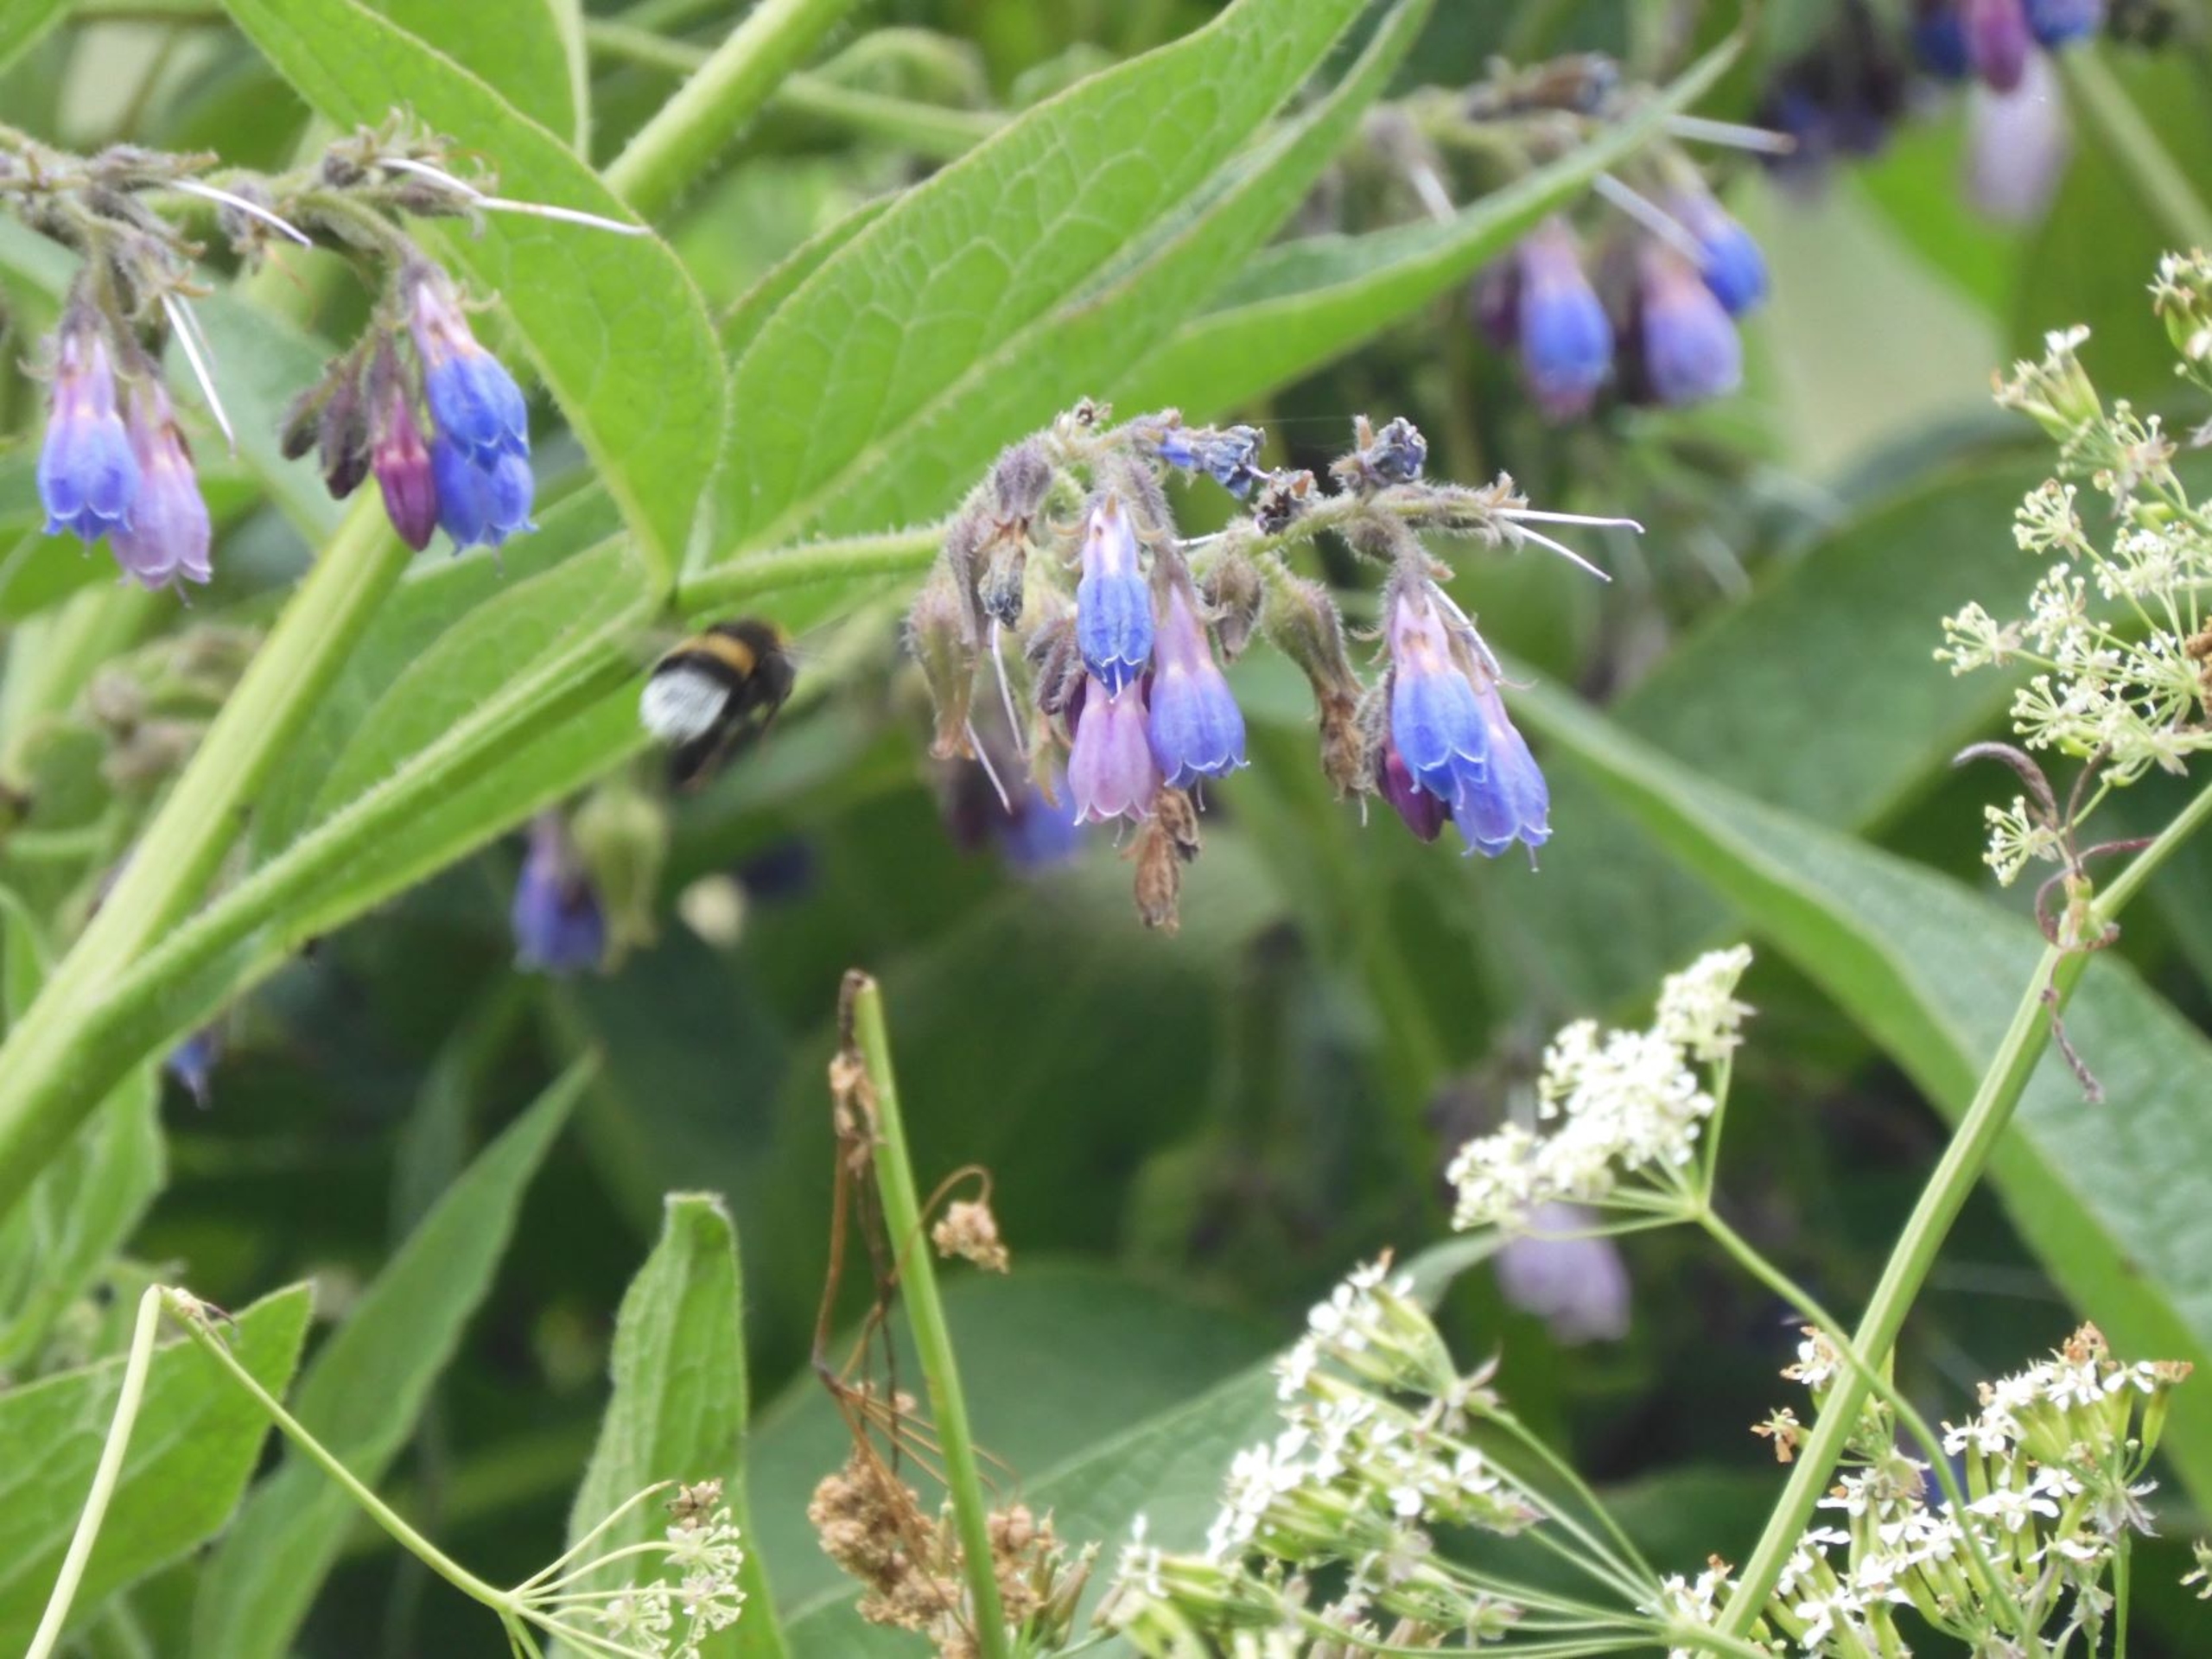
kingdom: Plantae
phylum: Tracheophyta
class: Magnoliopsida
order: Boraginales
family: Boraginaceae
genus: Symphytum
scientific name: Symphytum uplandicum
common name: Foder-kulsukker
